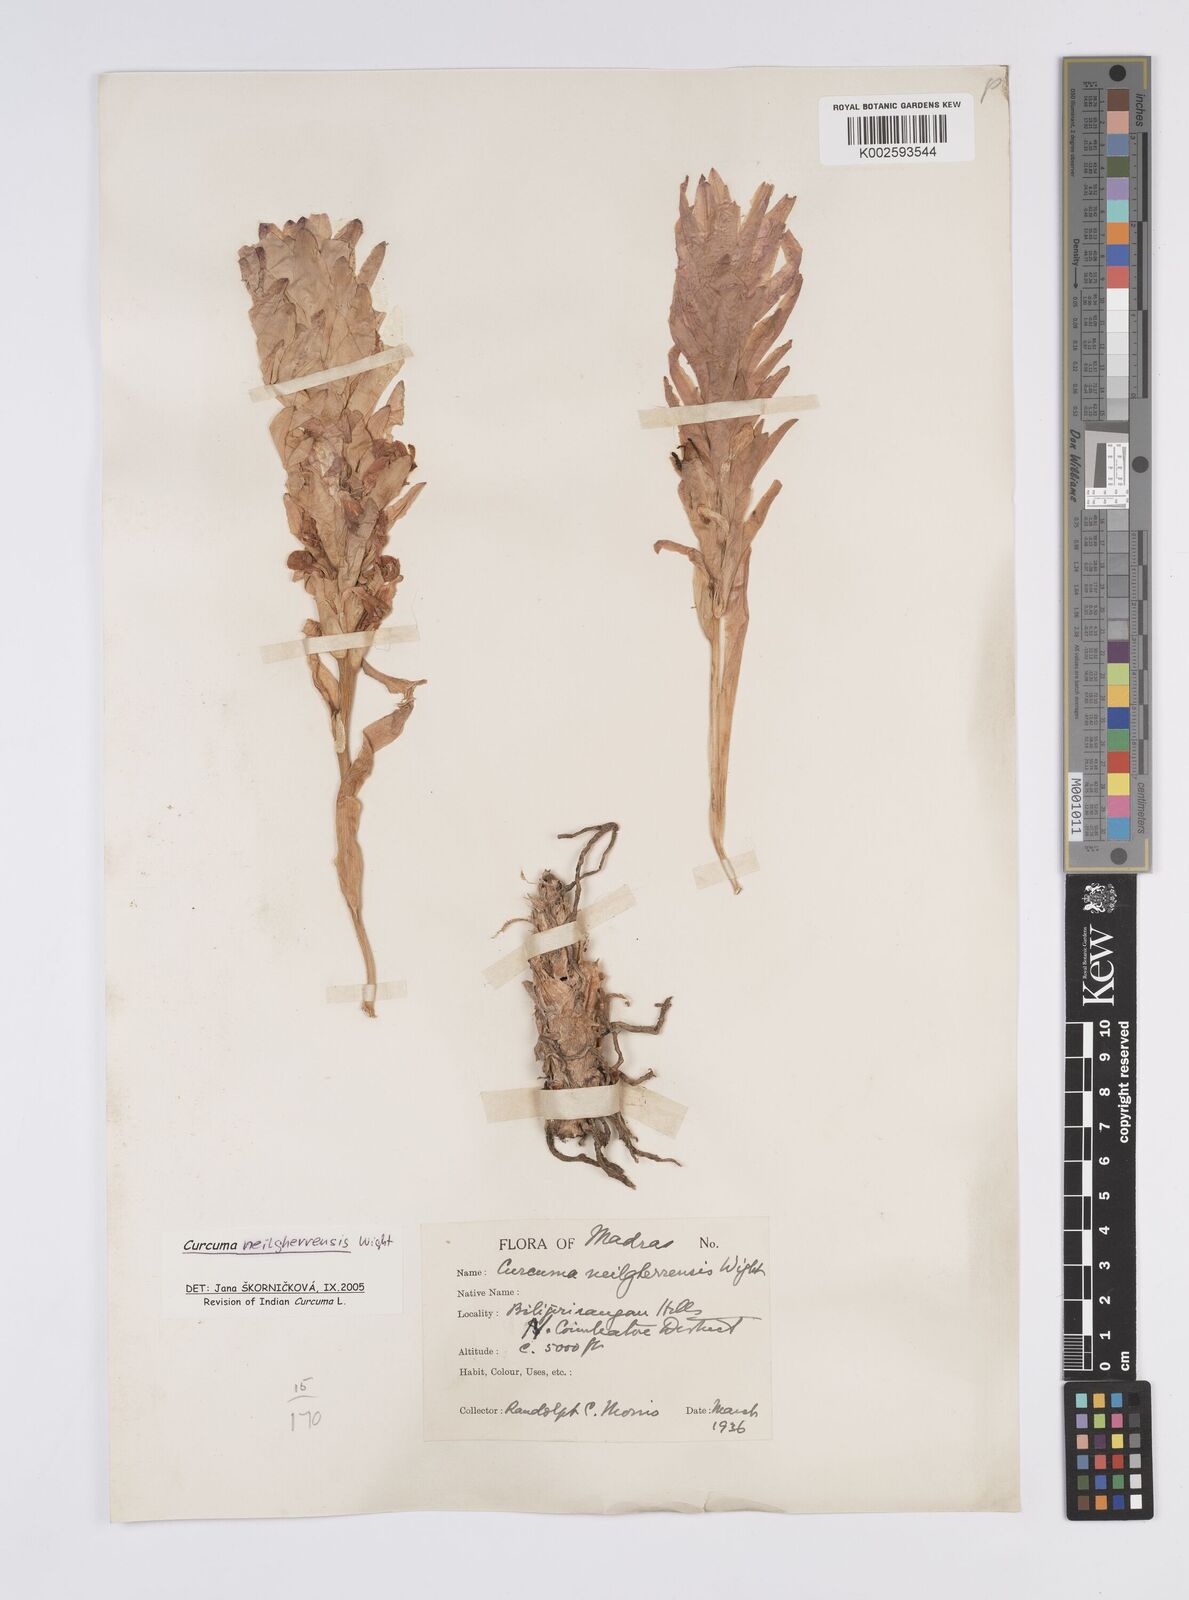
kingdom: Plantae
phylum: Tracheophyta
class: Liliopsida
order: Zingiberales
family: Zingiberaceae
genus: Curcuma
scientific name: Curcuma neilgherrensis
